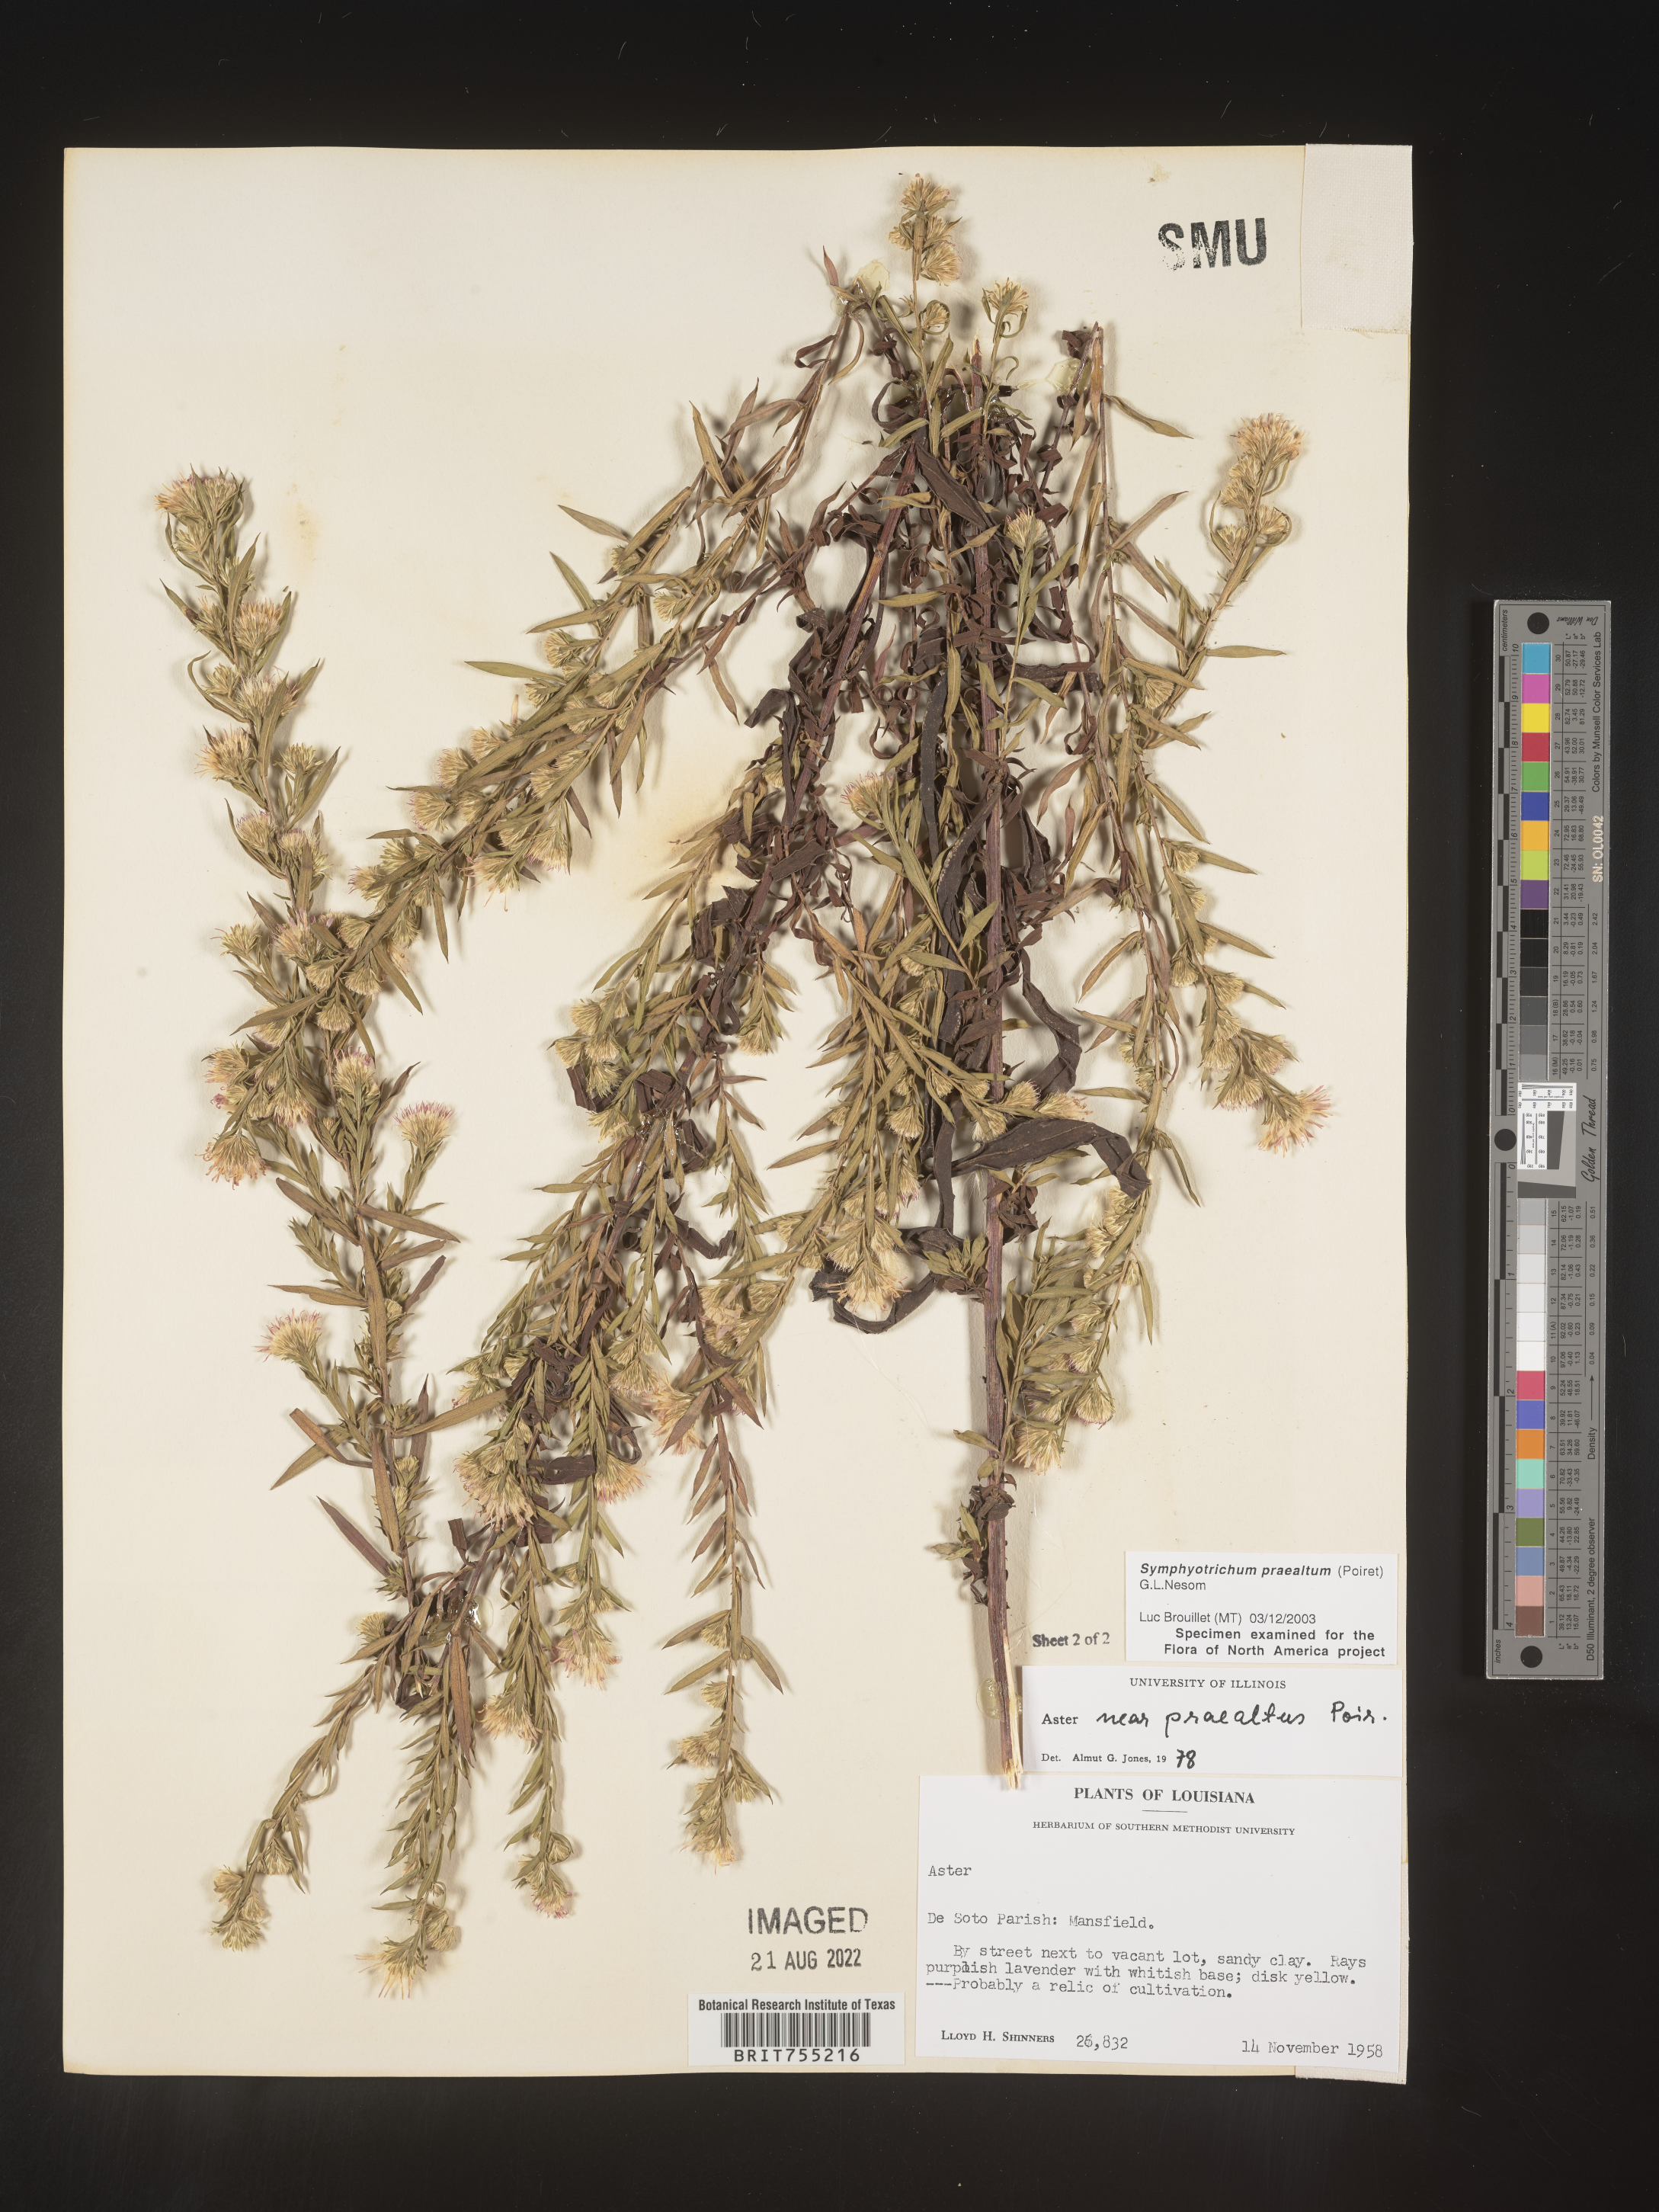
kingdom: Plantae
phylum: Tracheophyta
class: Magnoliopsida
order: Asterales
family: Asteraceae
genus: Symphyotrichum
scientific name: Symphyotrichum praealtum
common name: Willow aster
